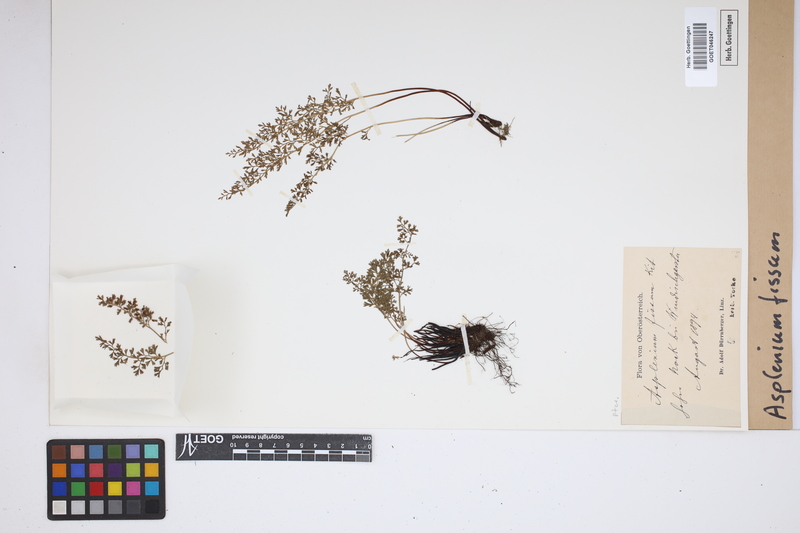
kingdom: Plantae
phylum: Tracheophyta
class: Polypodiopsida
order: Polypodiales
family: Aspleniaceae
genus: Asplenium
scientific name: Asplenium fissum
